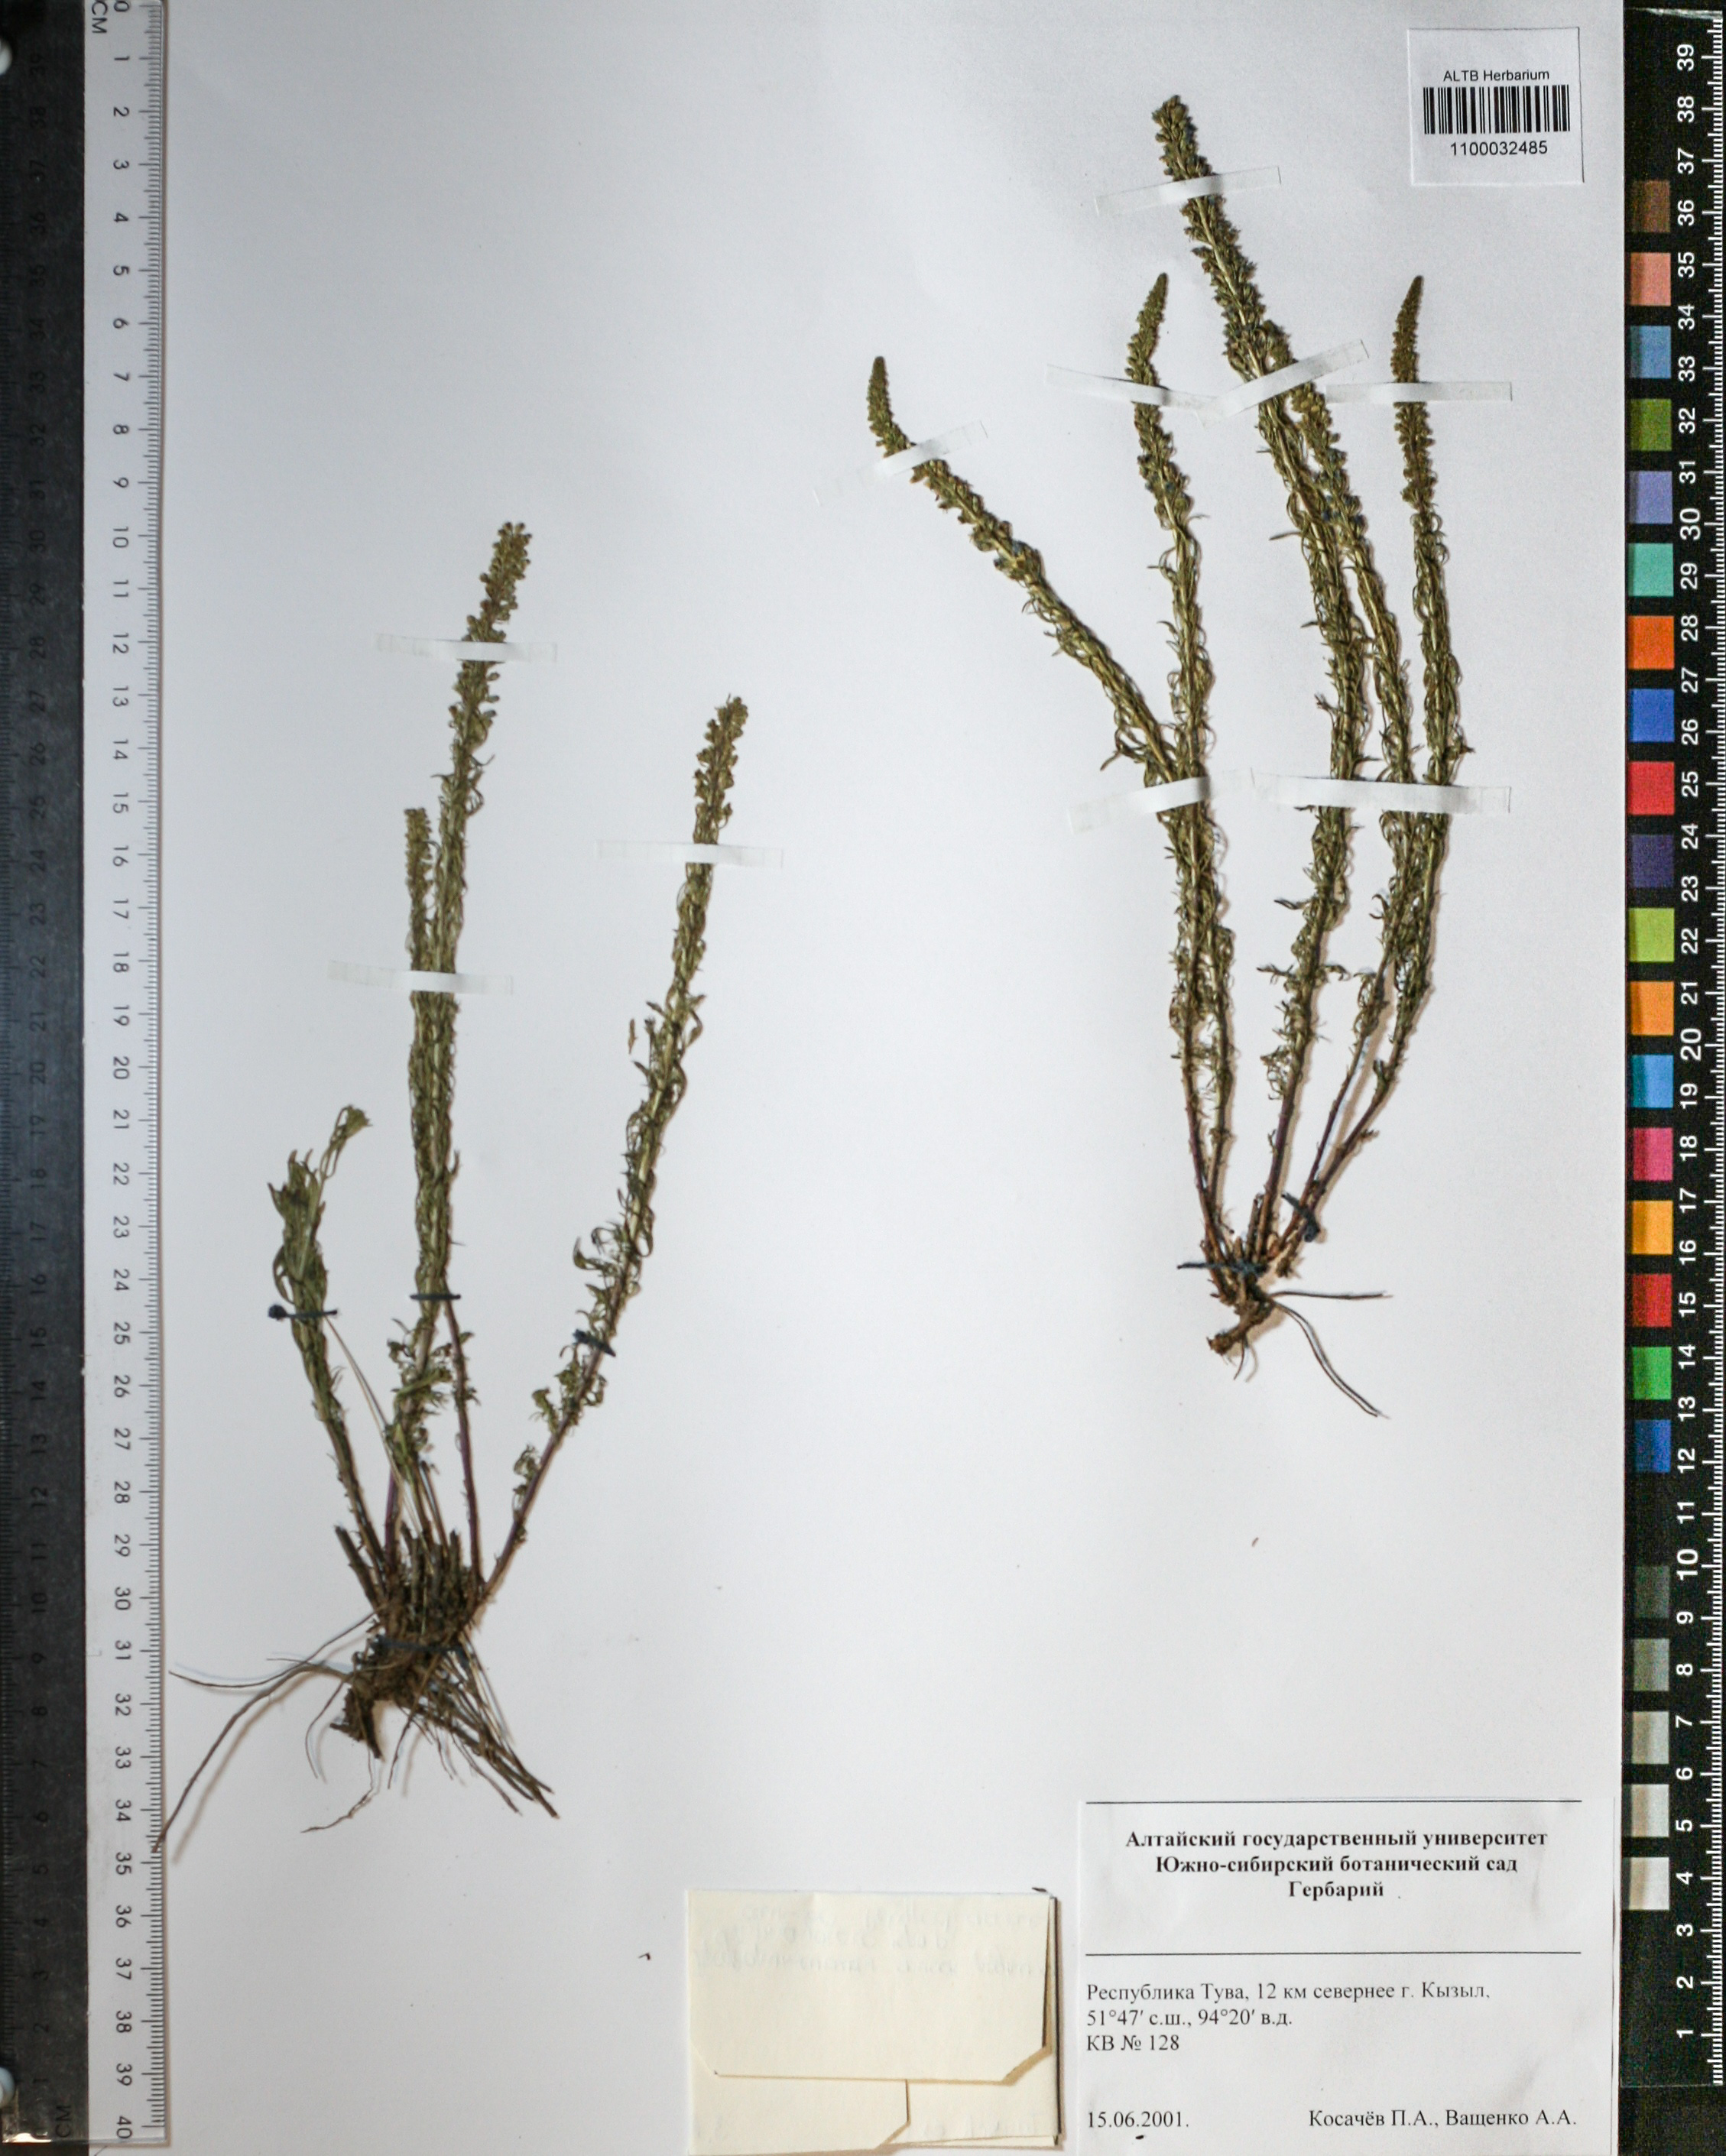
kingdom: Plantae
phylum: Tracheophyta
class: Magnoliopsida
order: Lamiales
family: Plantaginaceae
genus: Veronica
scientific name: Veronica spicata
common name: Spiked speedwell
